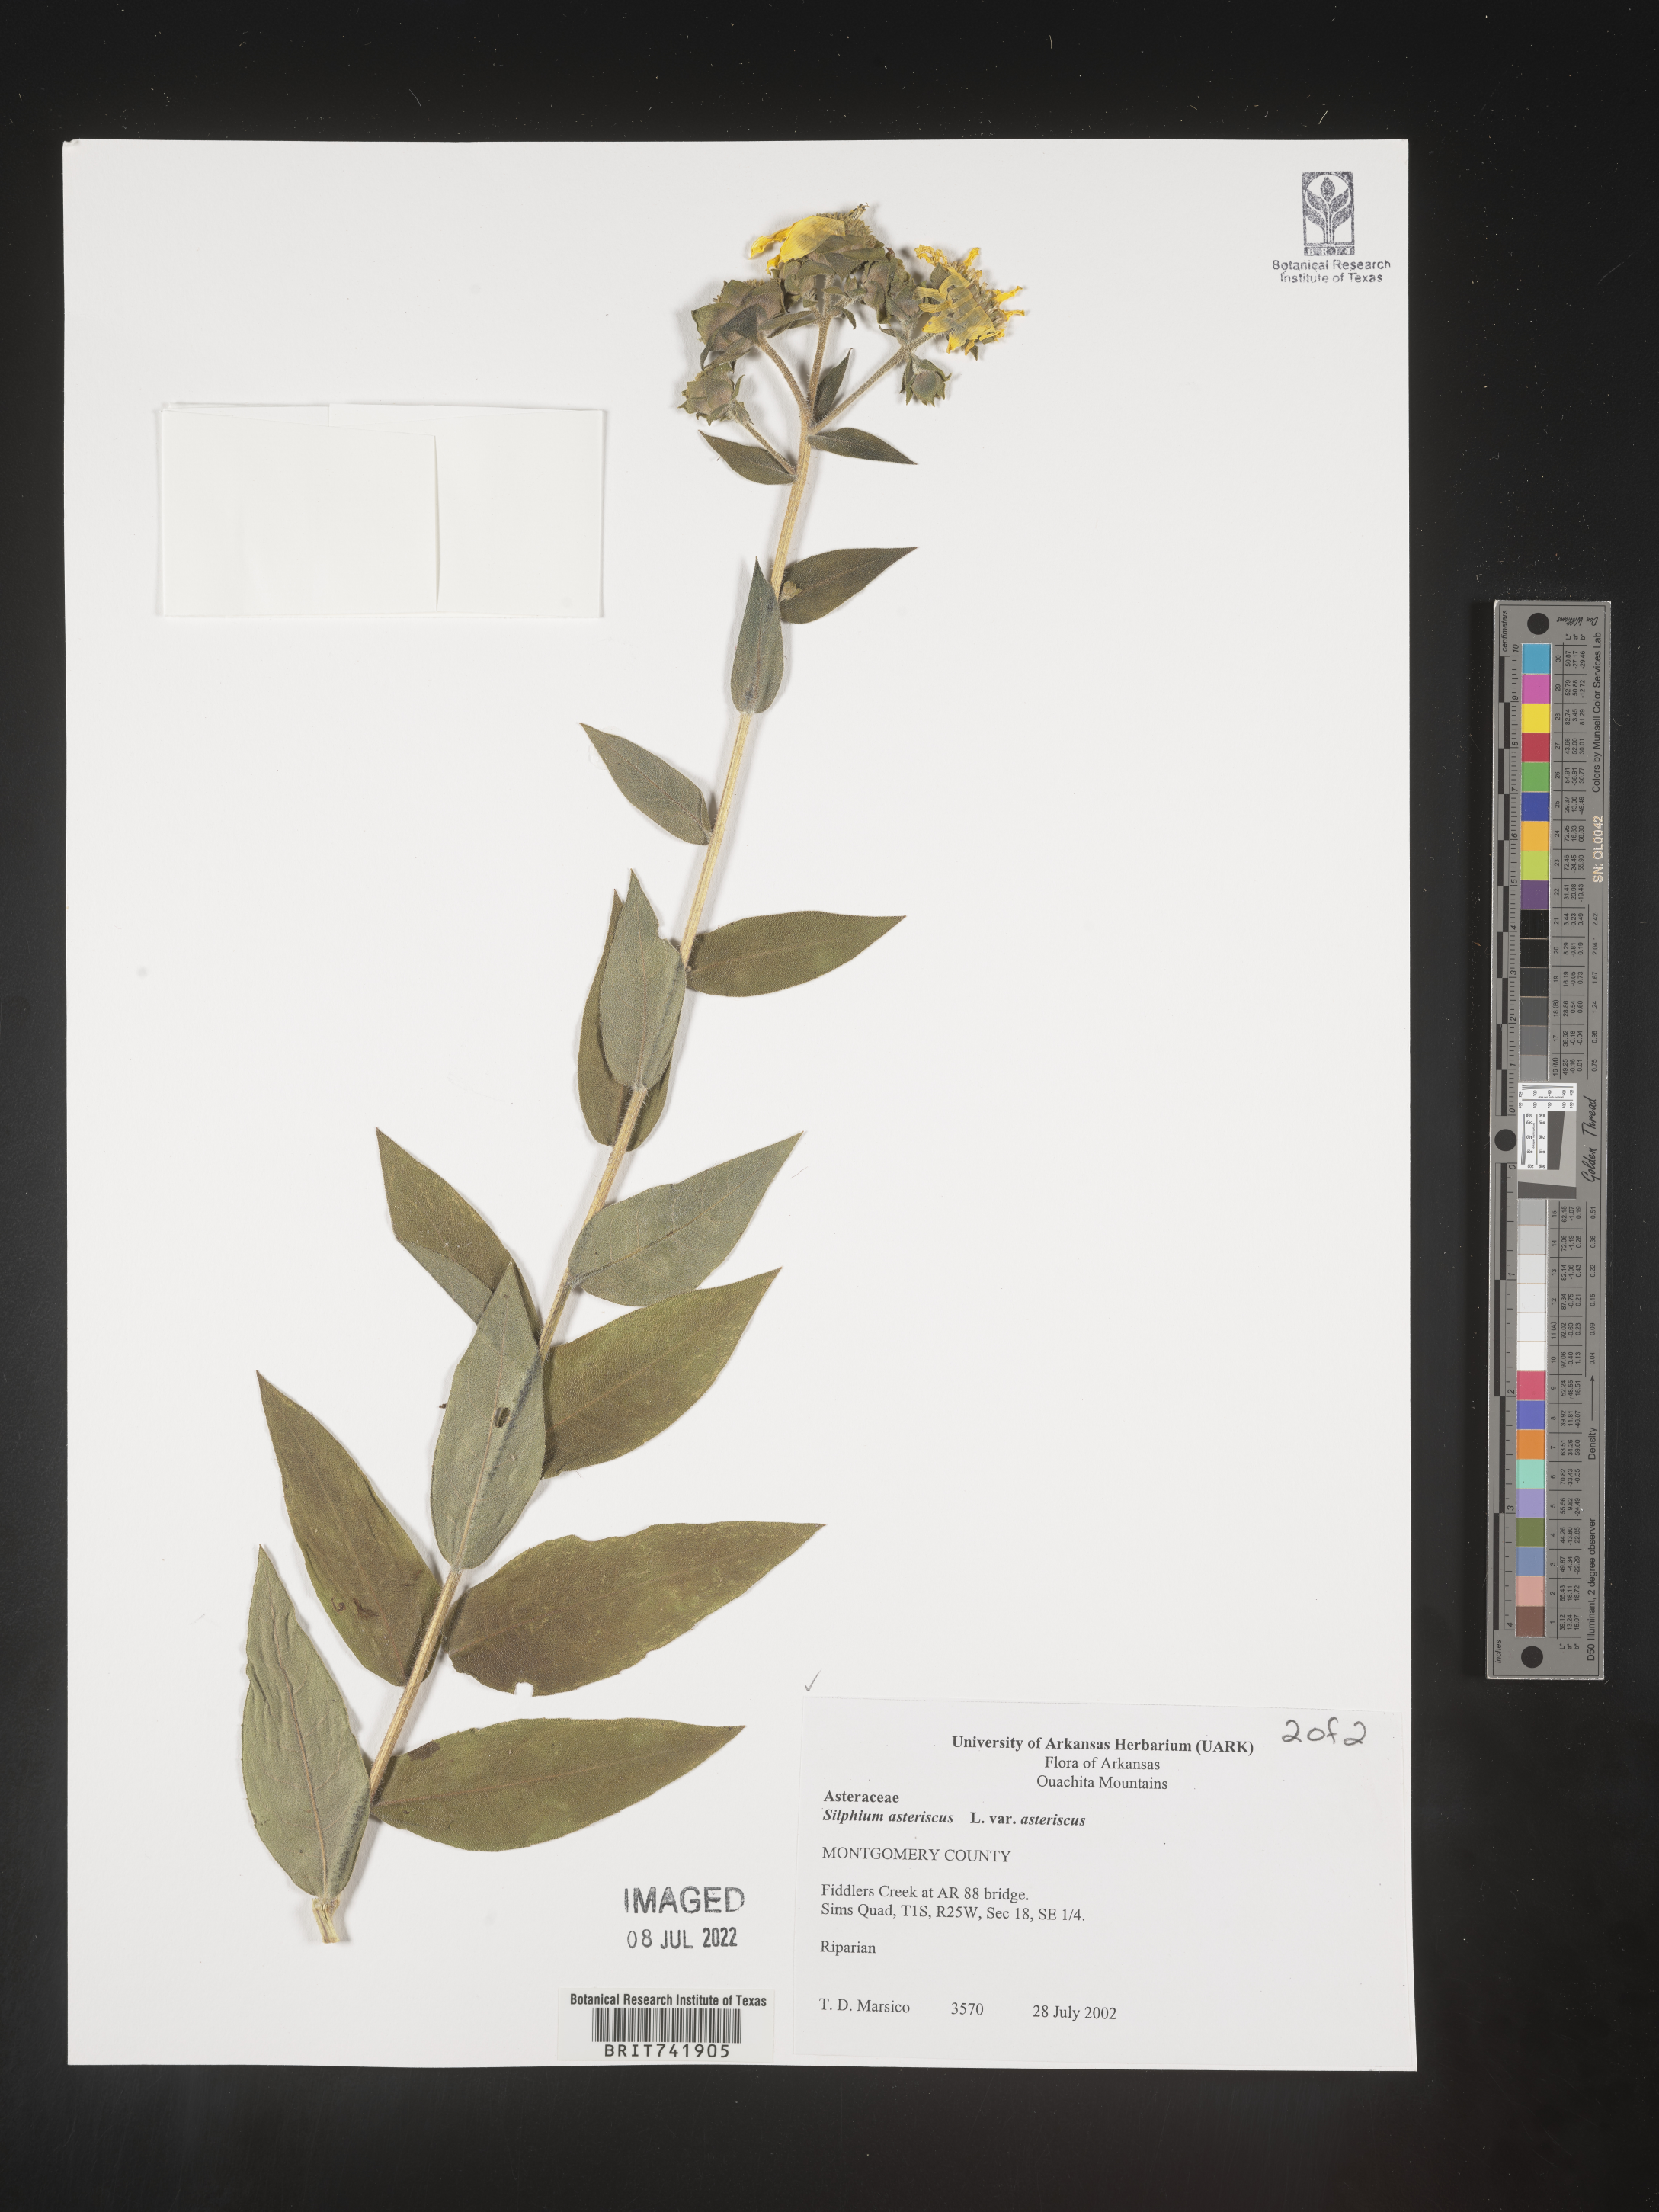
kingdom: Plantae
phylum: Tracheophyta
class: Magnoliopsida
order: Asterales
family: Asteraceae
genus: Silphium
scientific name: Silphium asperrimum
